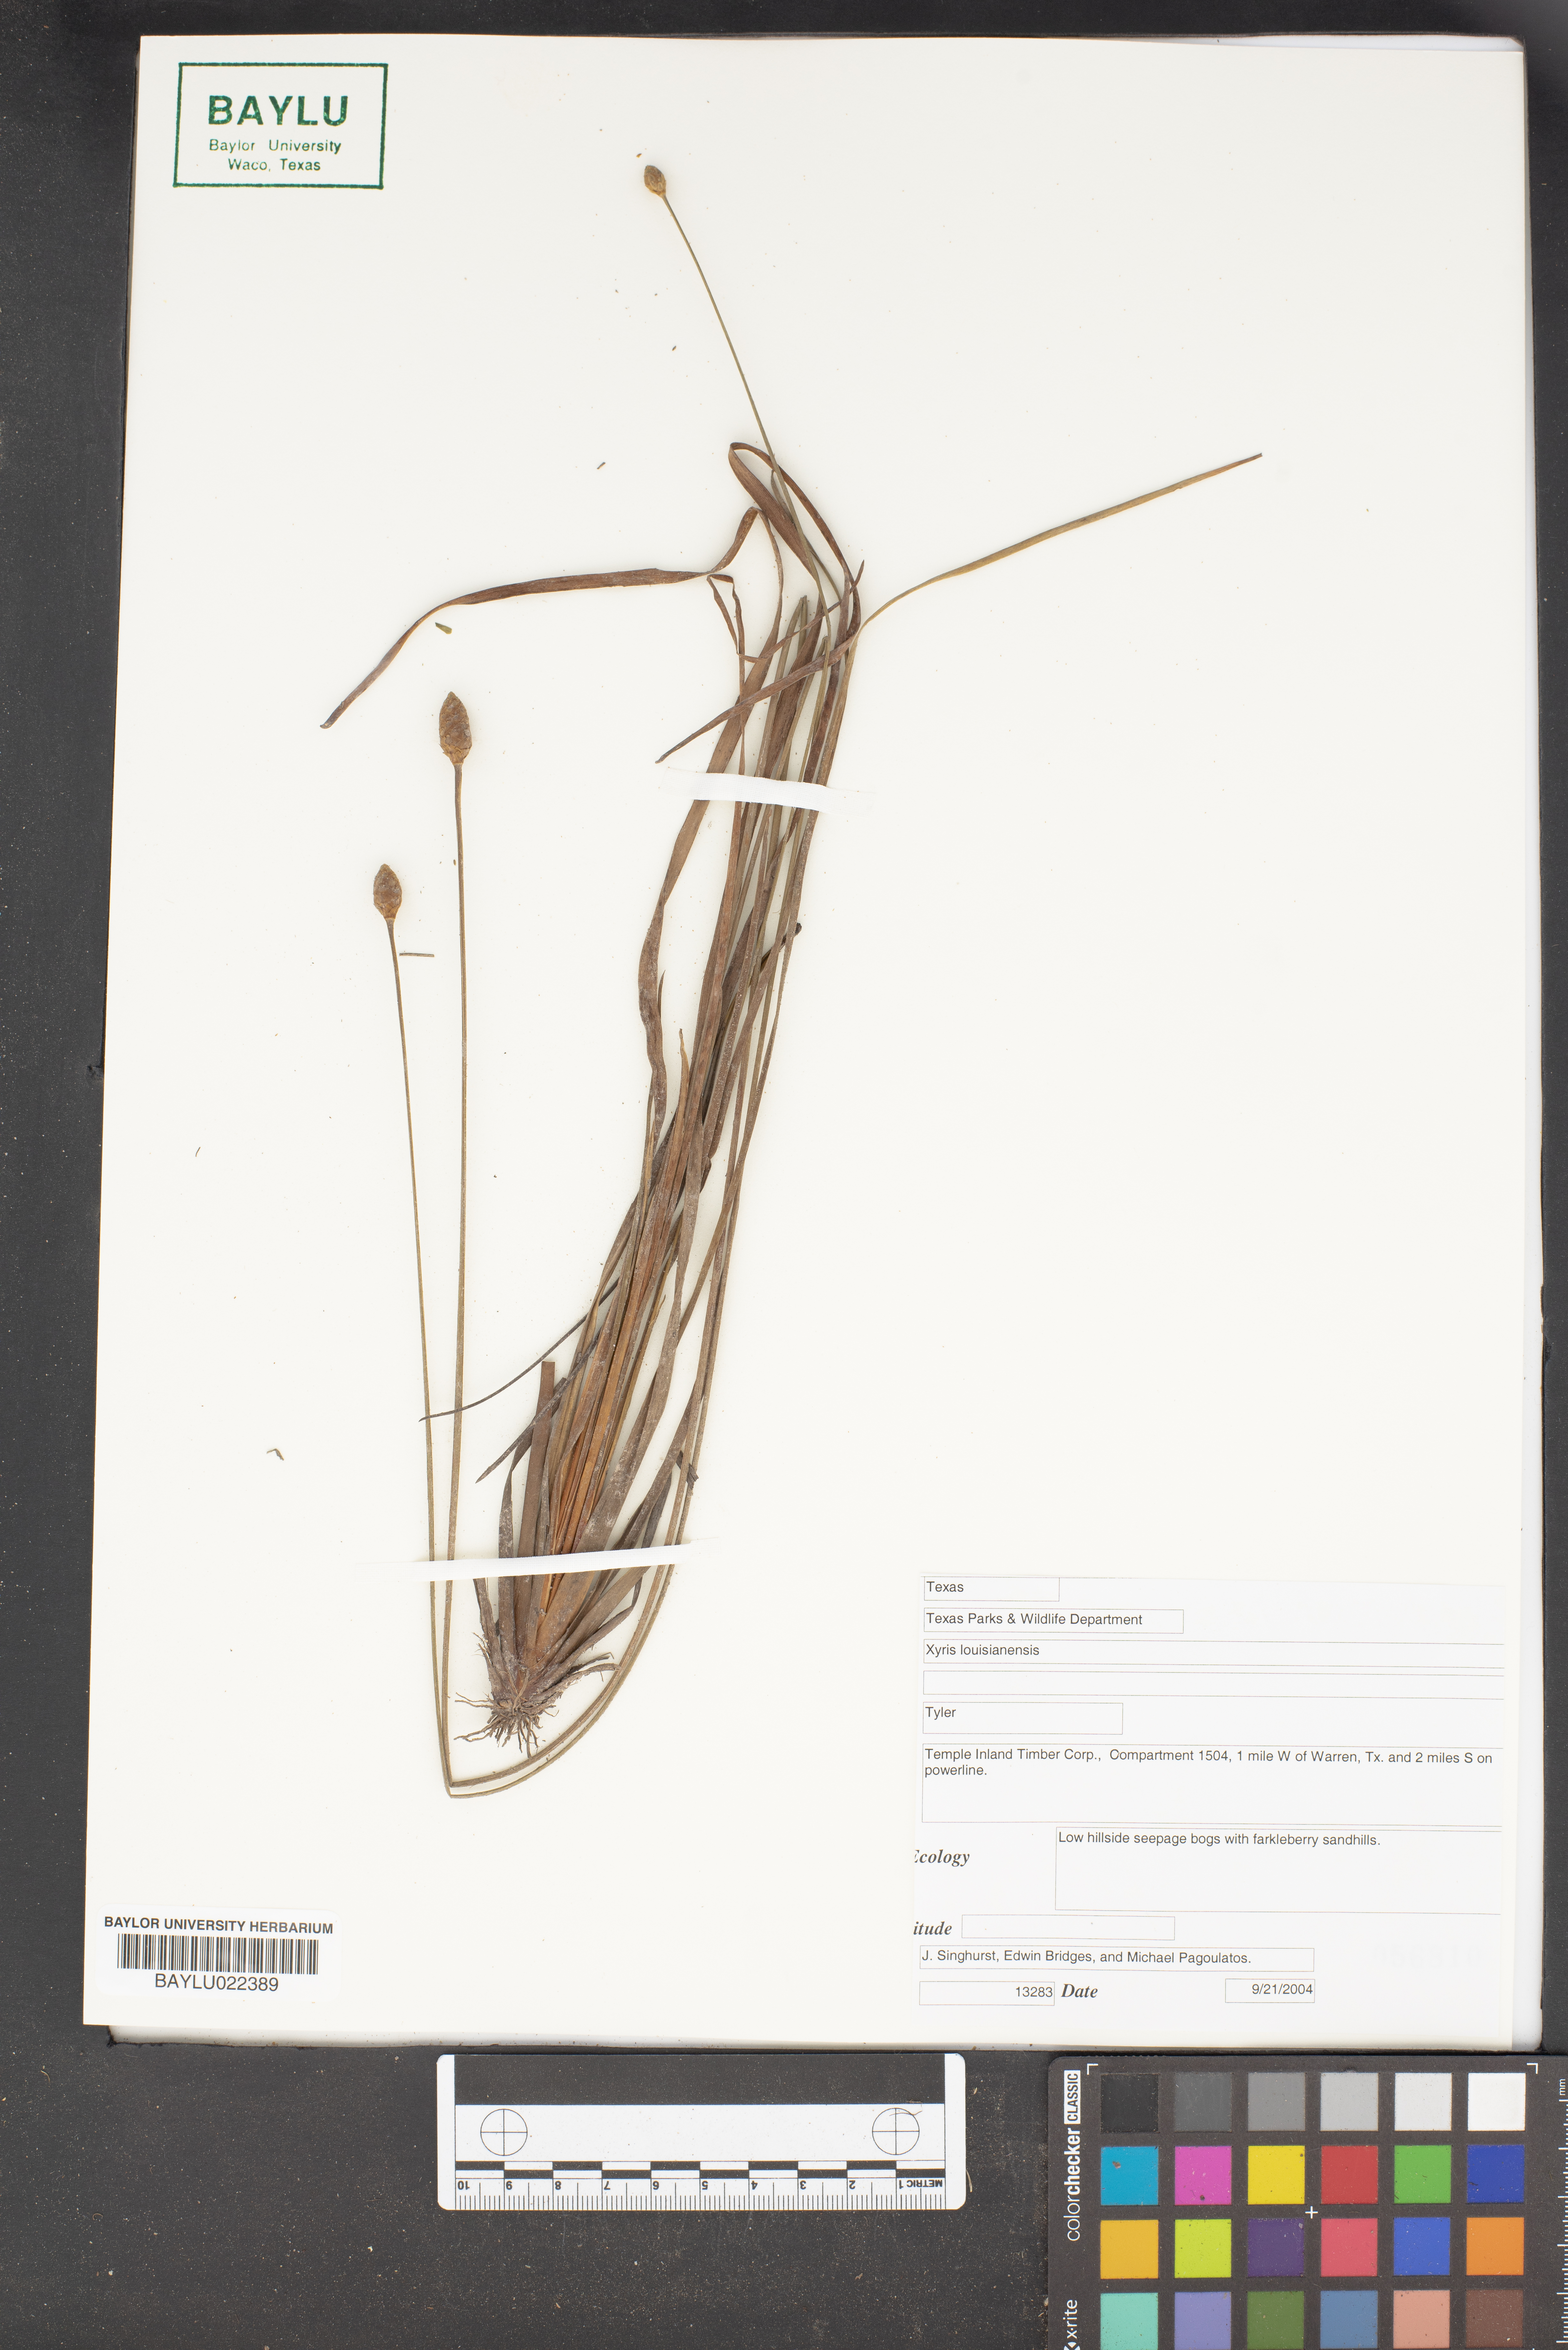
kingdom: Plantae
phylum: Tracheophyta
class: Liliopsida
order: Poales
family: Xyridaceae
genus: Xyris
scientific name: Xyris stricta
